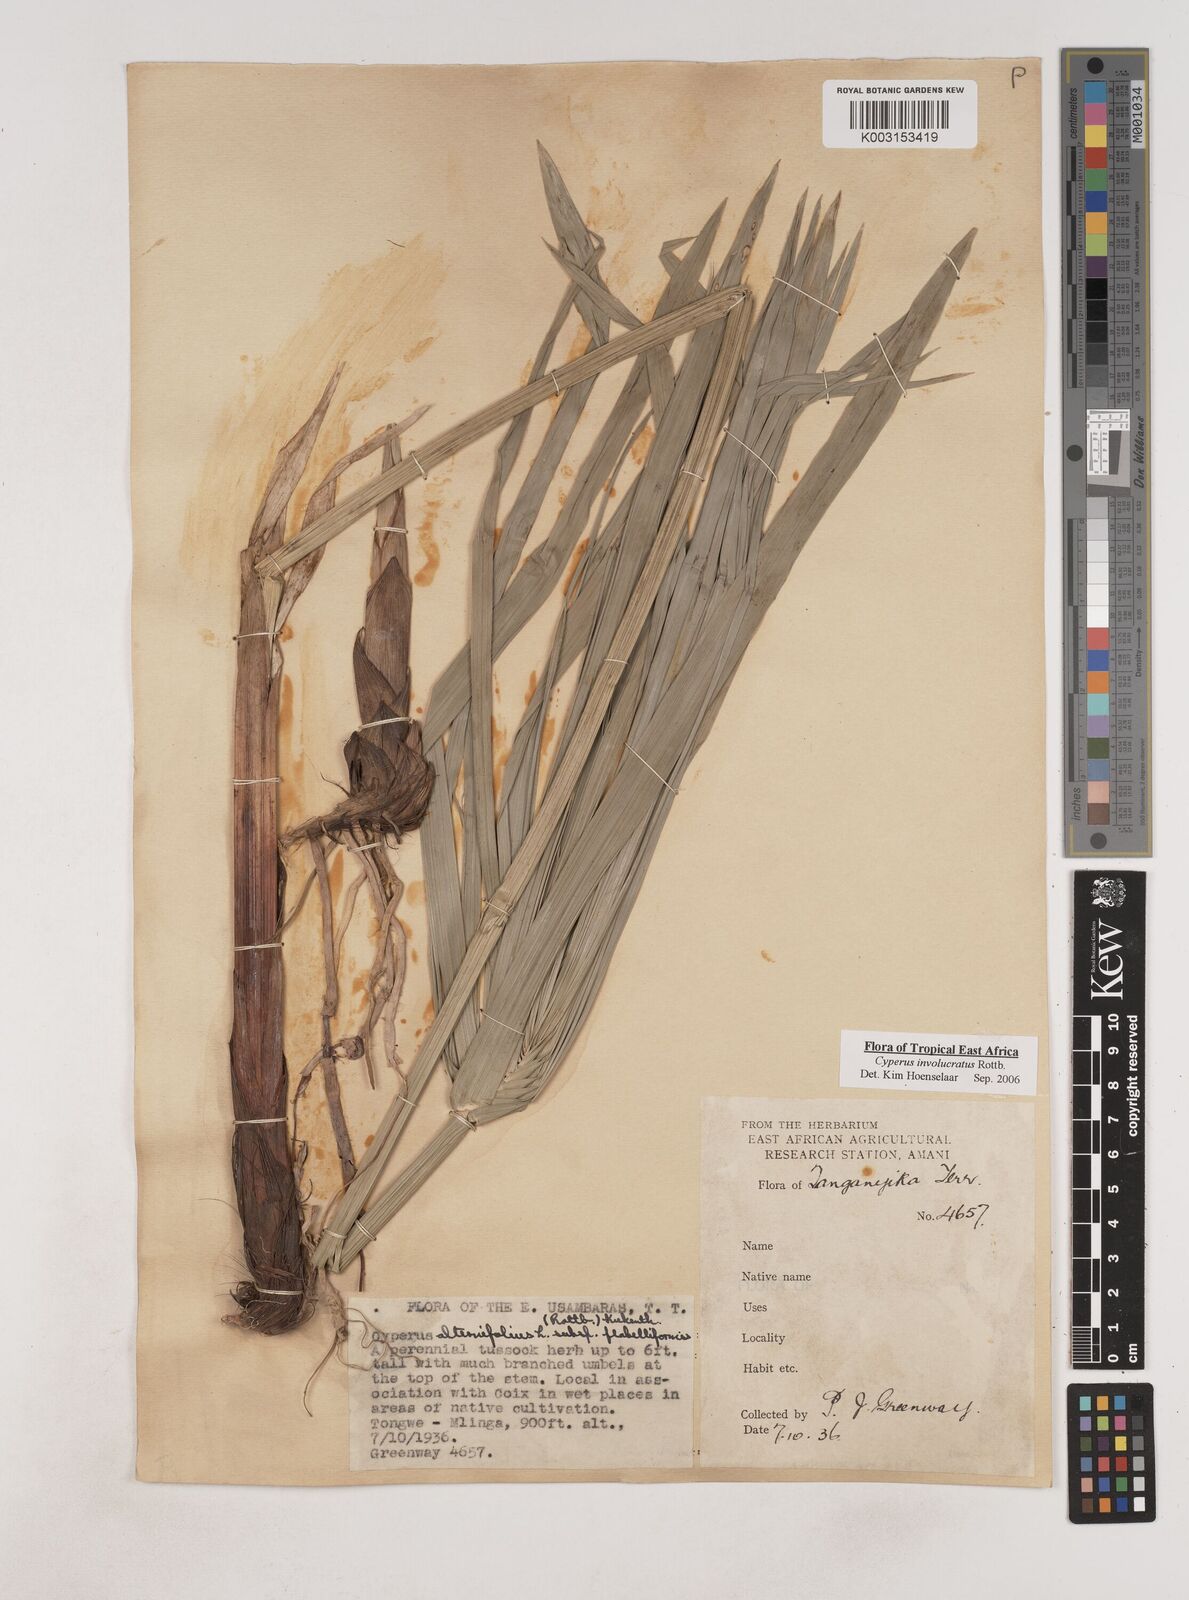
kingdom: Plantae
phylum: Tracheophyta
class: Liliopsida
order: Poales
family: Cyperaceae
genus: Cyperus
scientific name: Cyperus alternifolius
